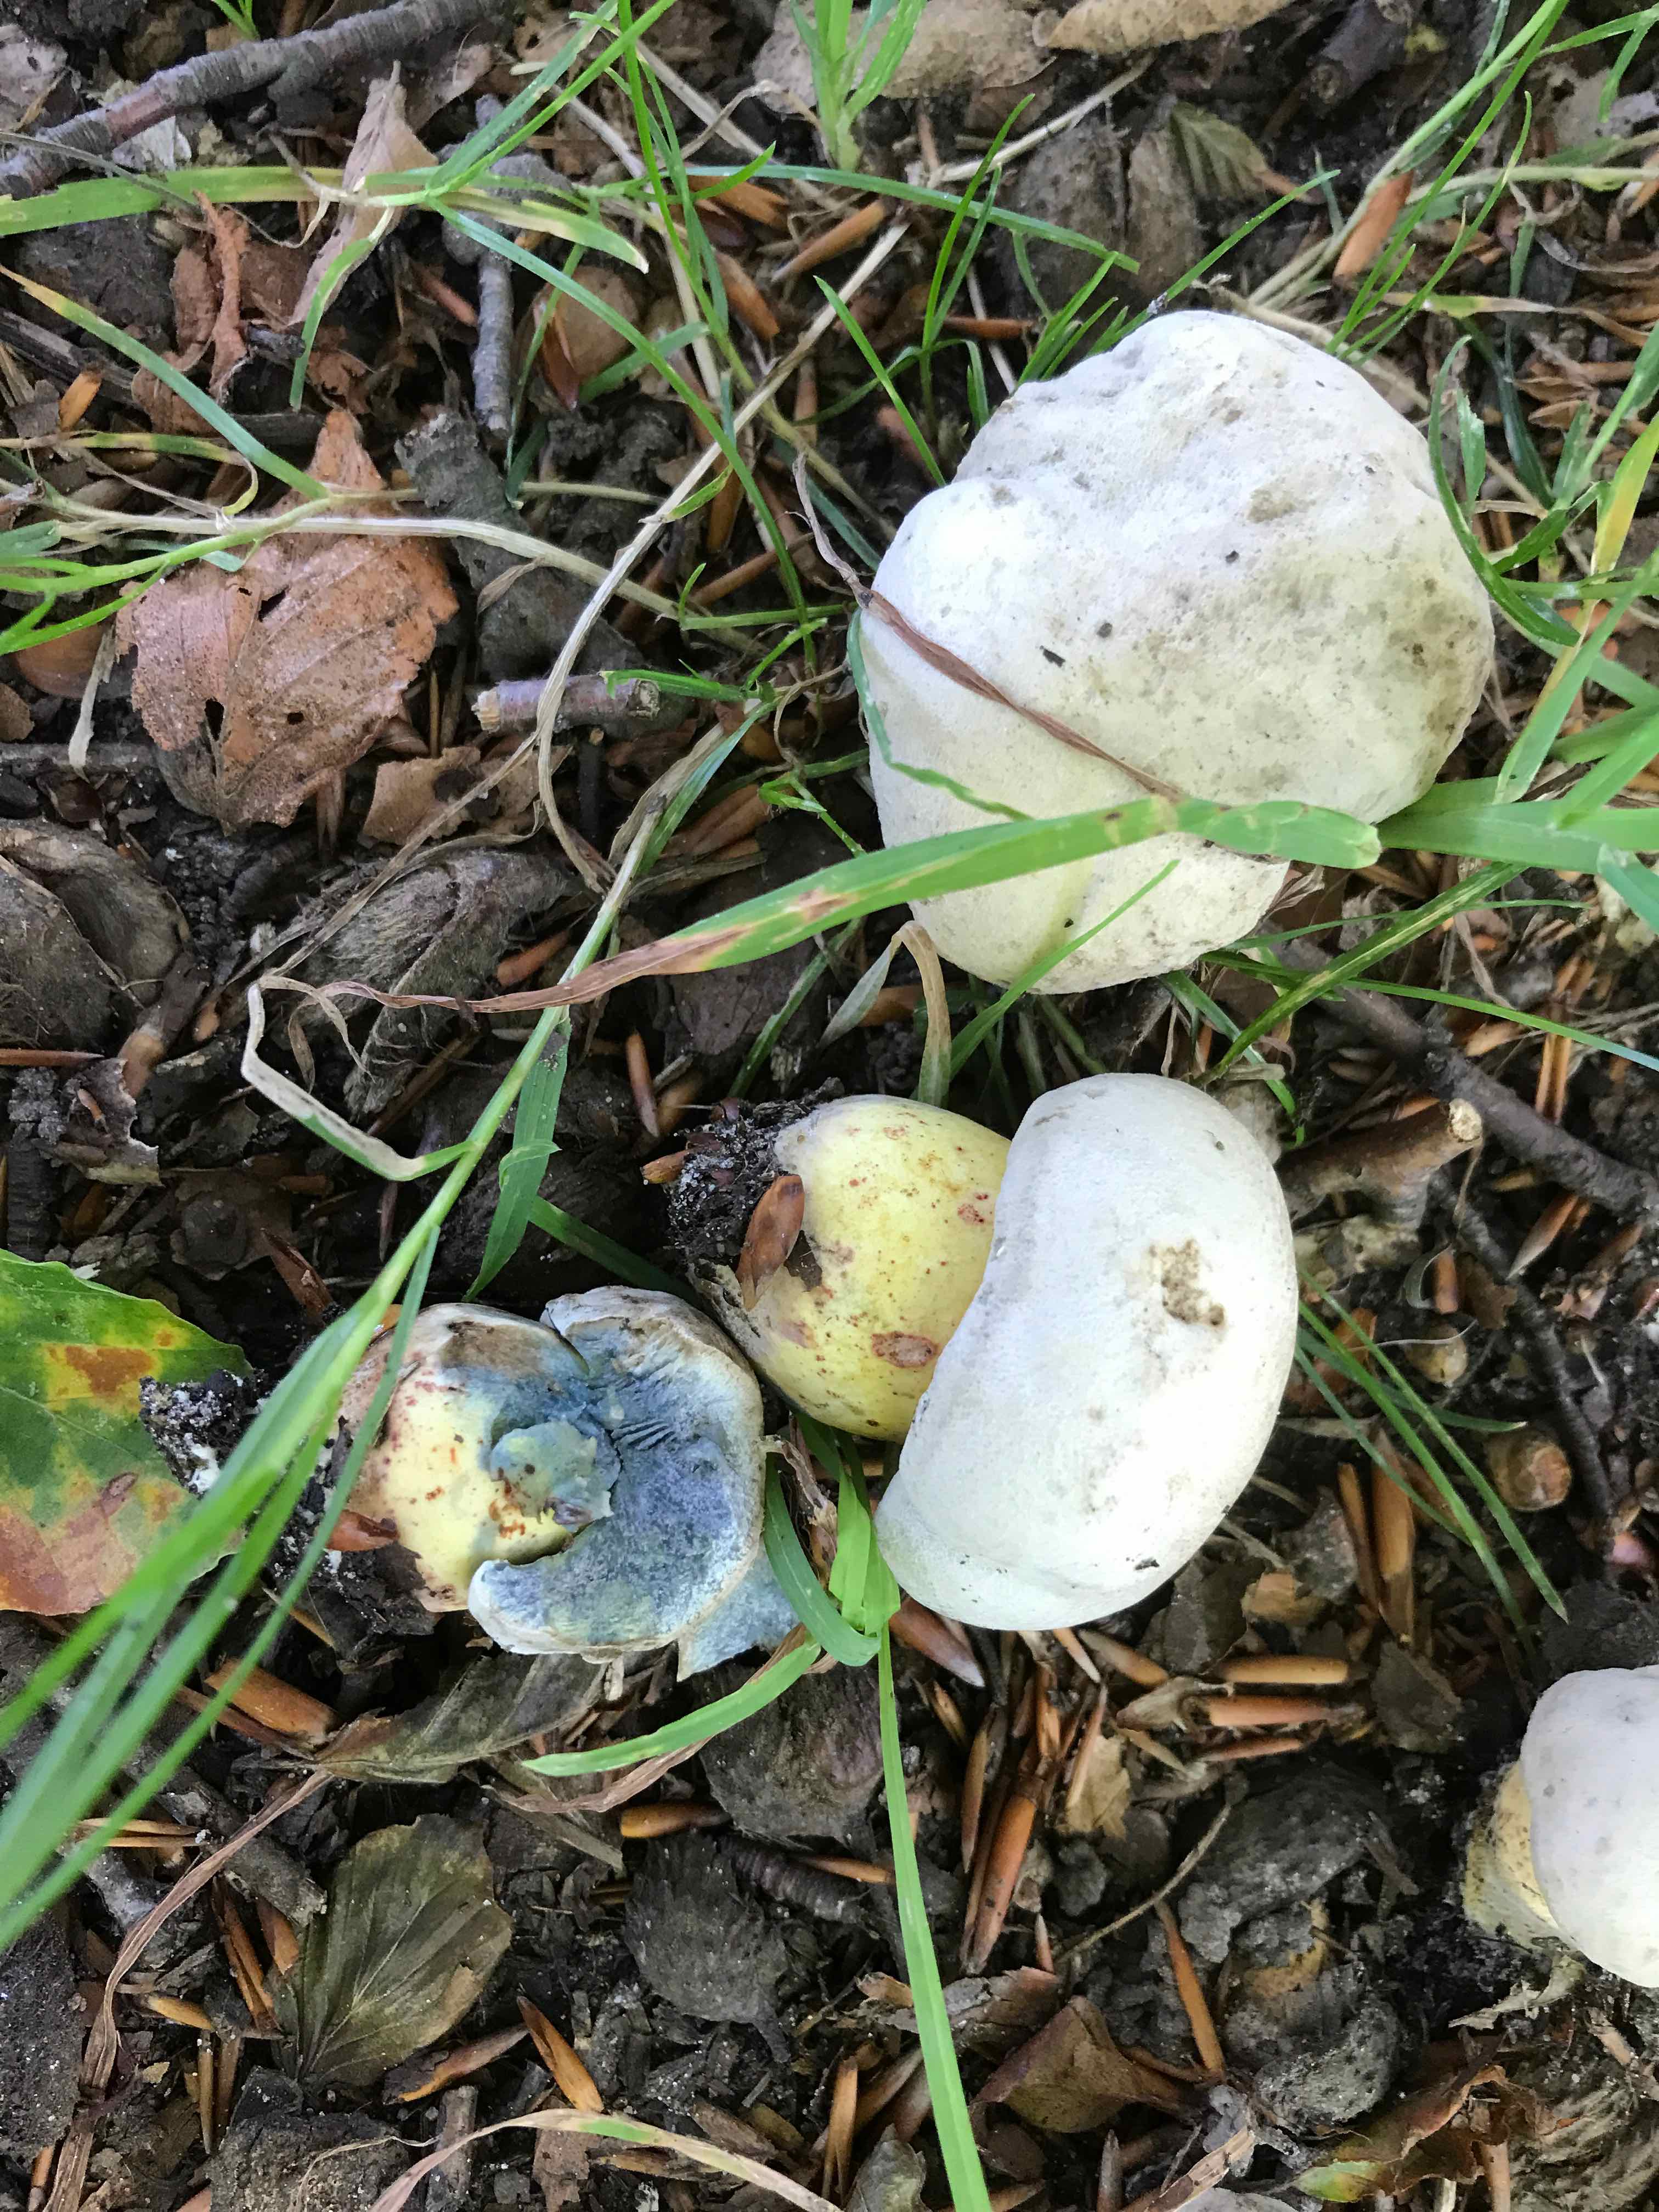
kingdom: Fungi
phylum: Basidiomycota
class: Agaricomycetes
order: Boletales
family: Boletaceae
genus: Caloboletus
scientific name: Caloboletus radicans
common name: rod-rørhat
